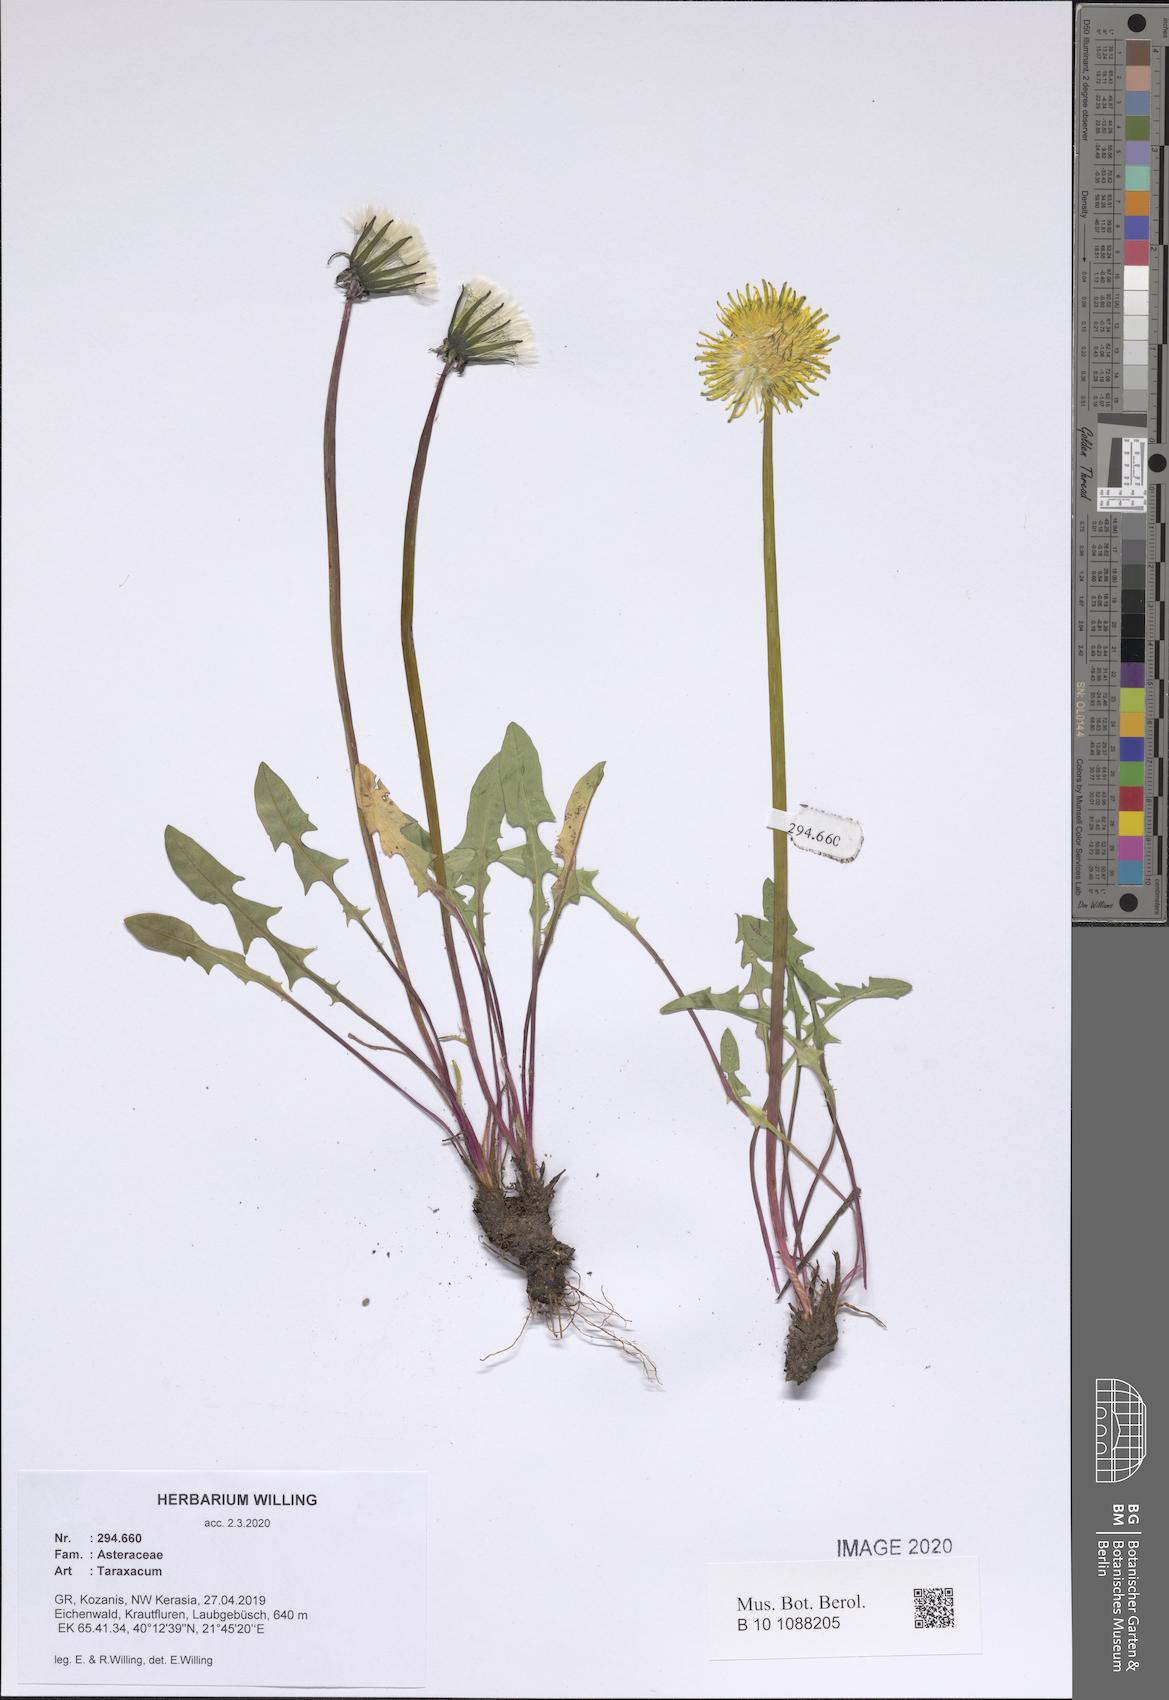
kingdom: Plantae
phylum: Tracheophyta
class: Magnoliopsida
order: Asterales
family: Asteraceae
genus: Taraxacum
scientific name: Taraxacum
